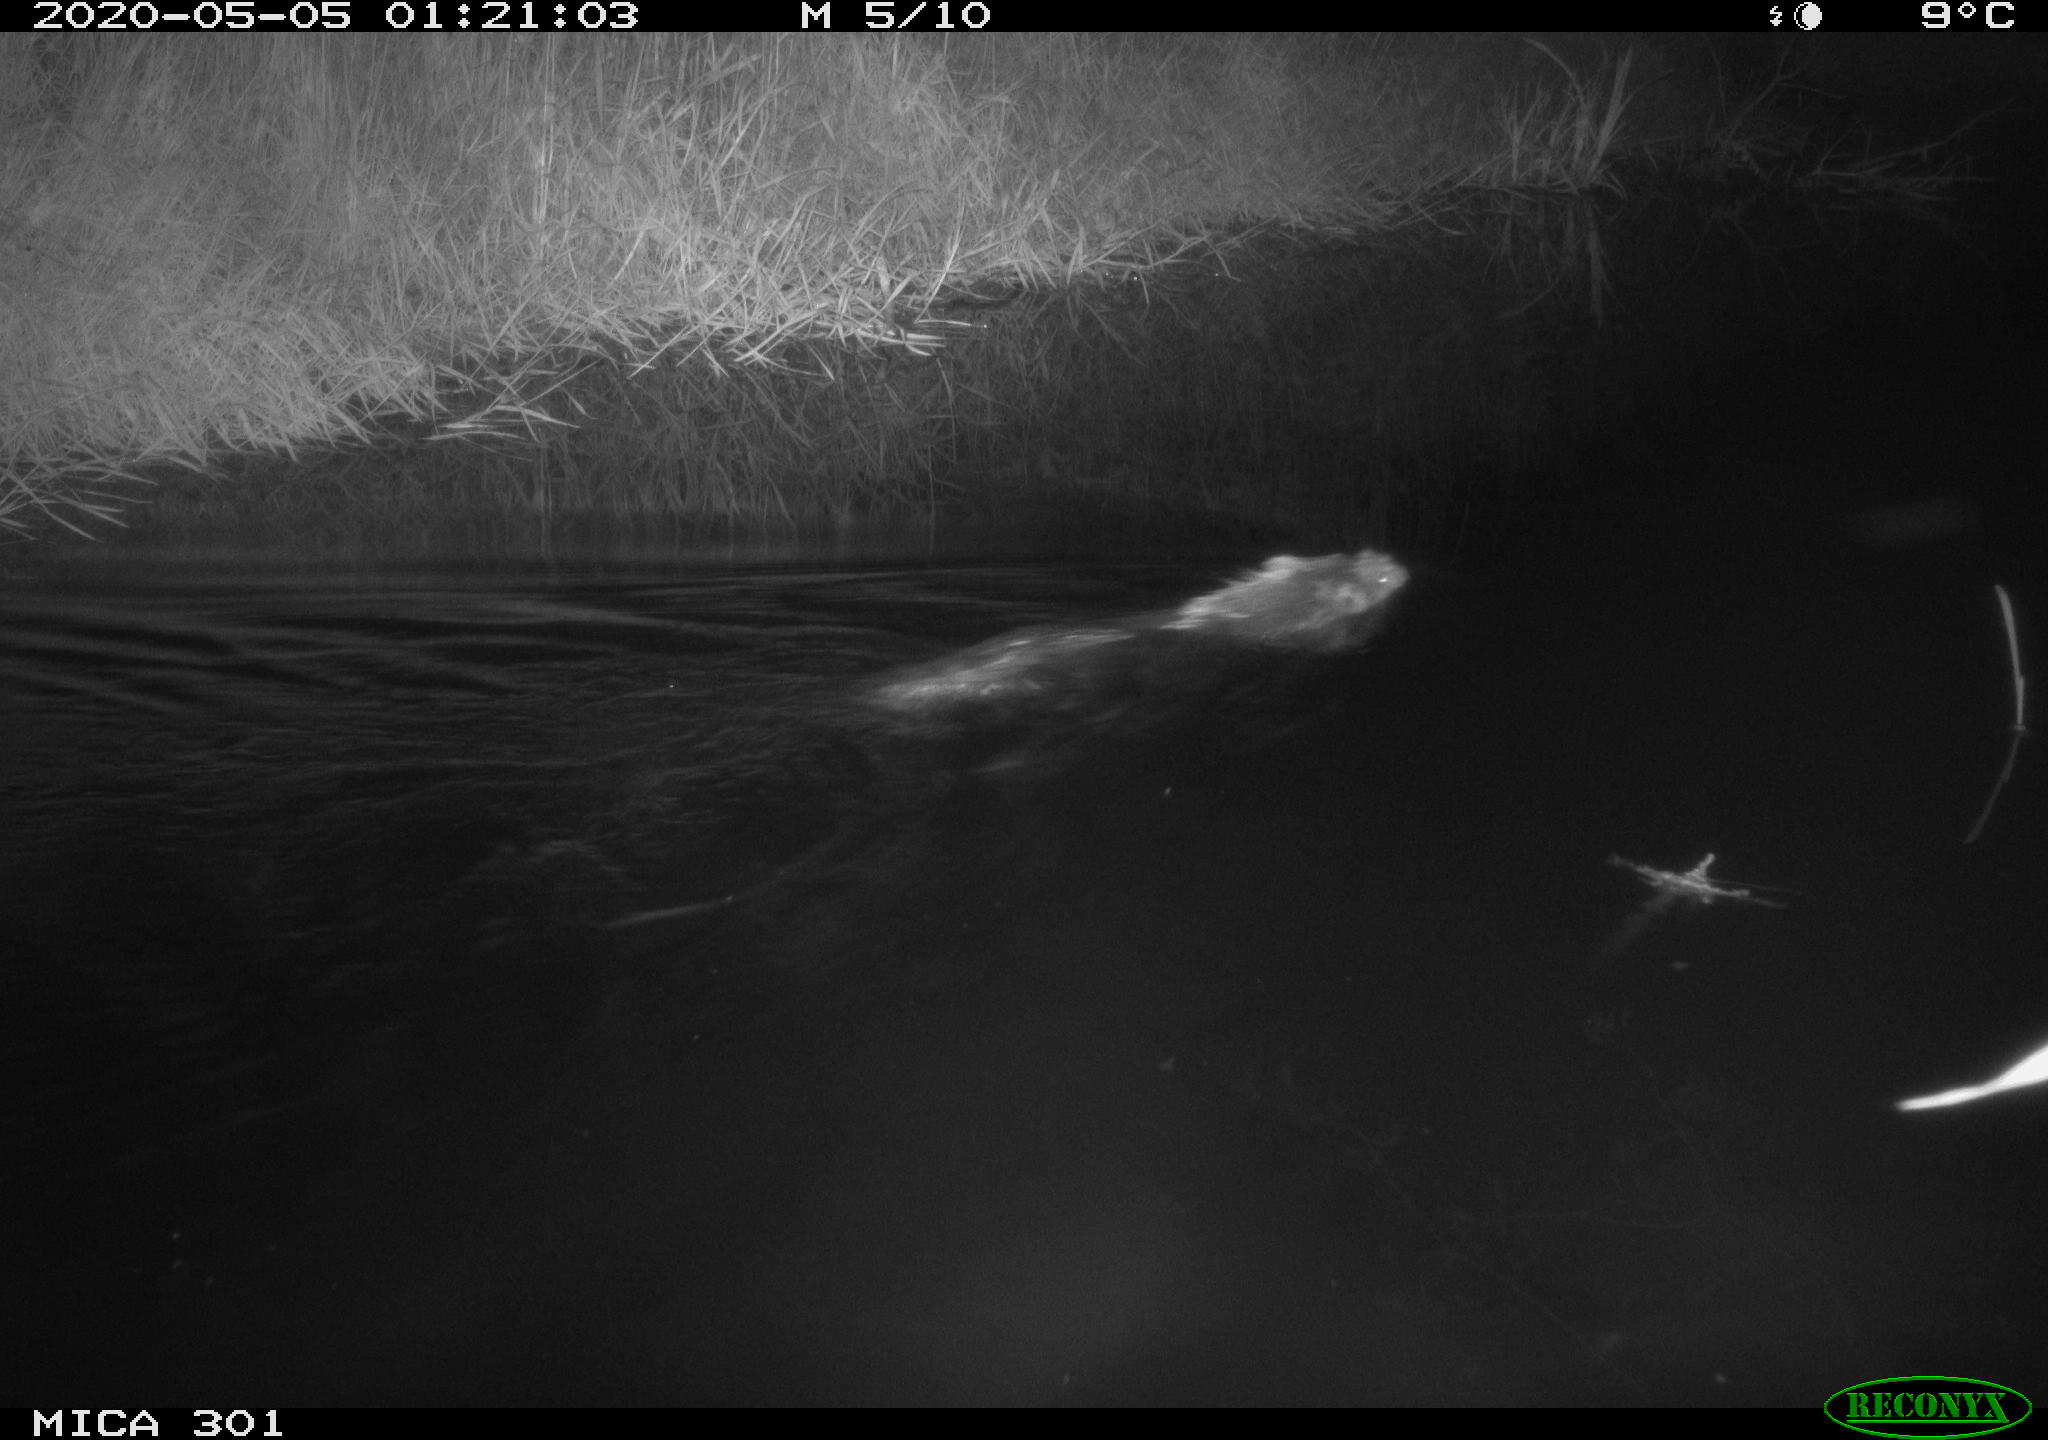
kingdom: Animalia
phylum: Chordata
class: Mammalia
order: Rodentia
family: Castoridae
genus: Castor
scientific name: Castor fiber
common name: Eurasian beaver
